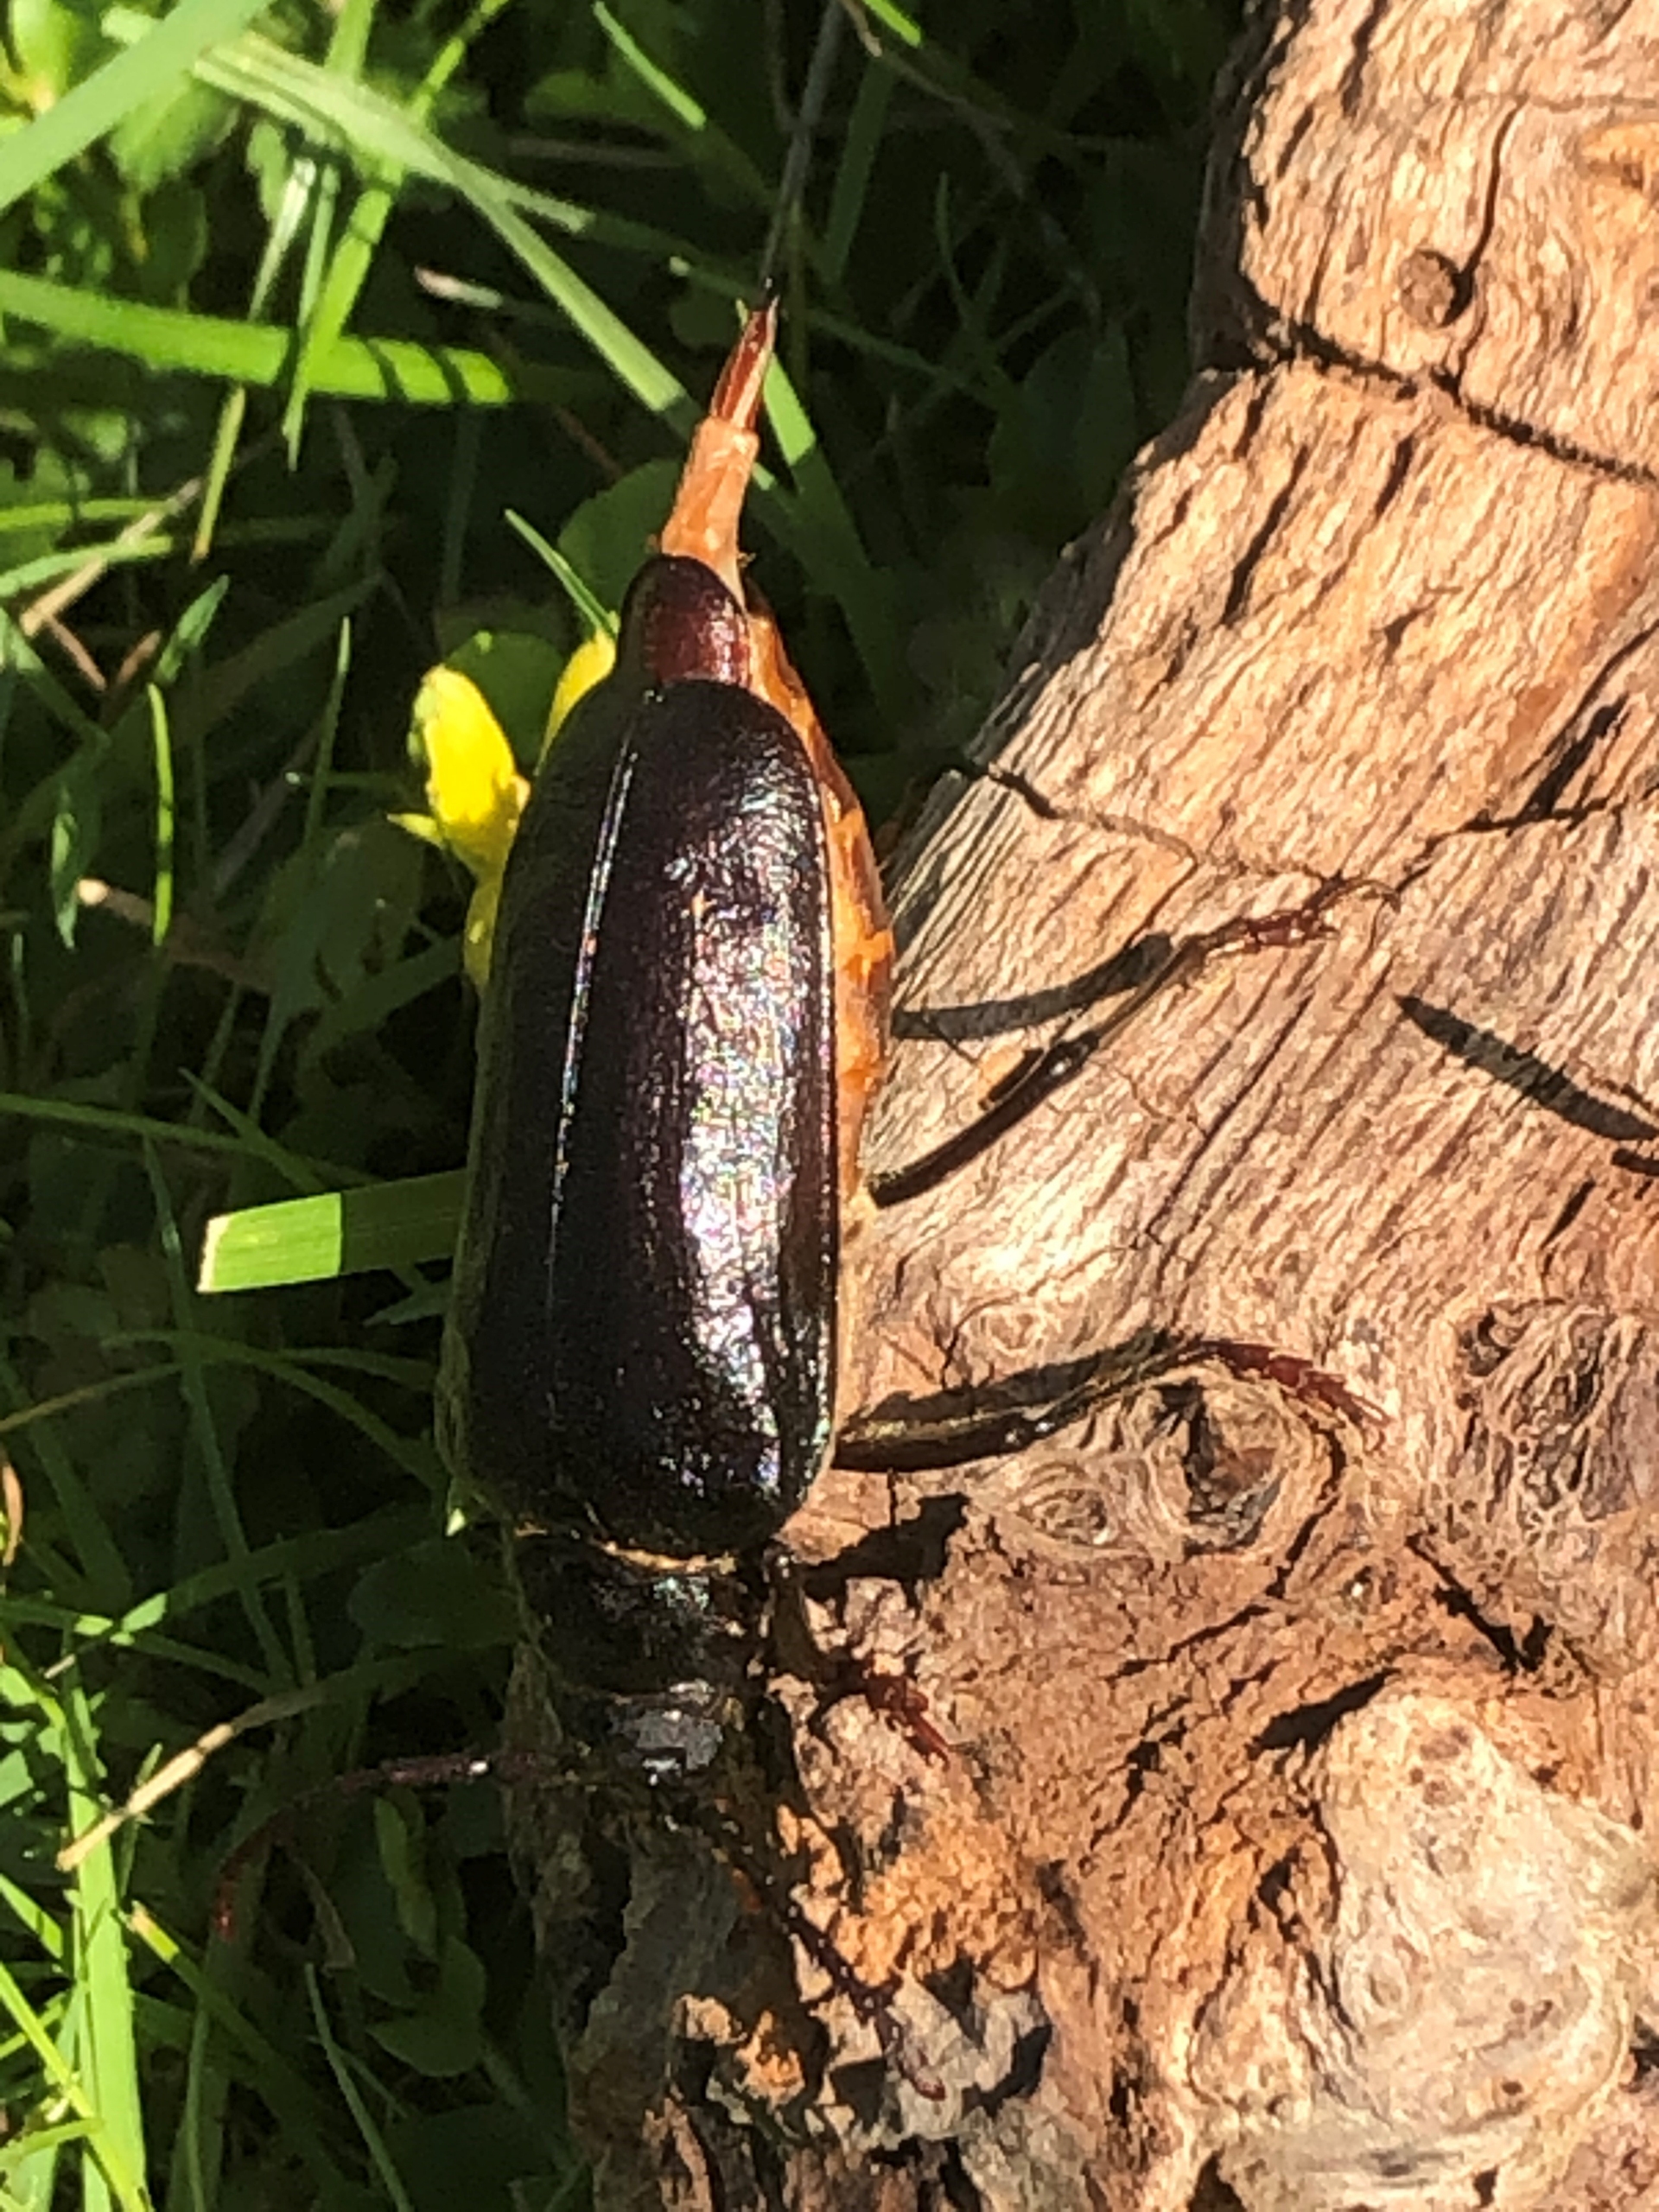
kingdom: Animalia
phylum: Arthropoda
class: Insecta
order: Coleoptera
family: Cerambycidae
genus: Prionus
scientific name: Prionus coriarius
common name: Garver
